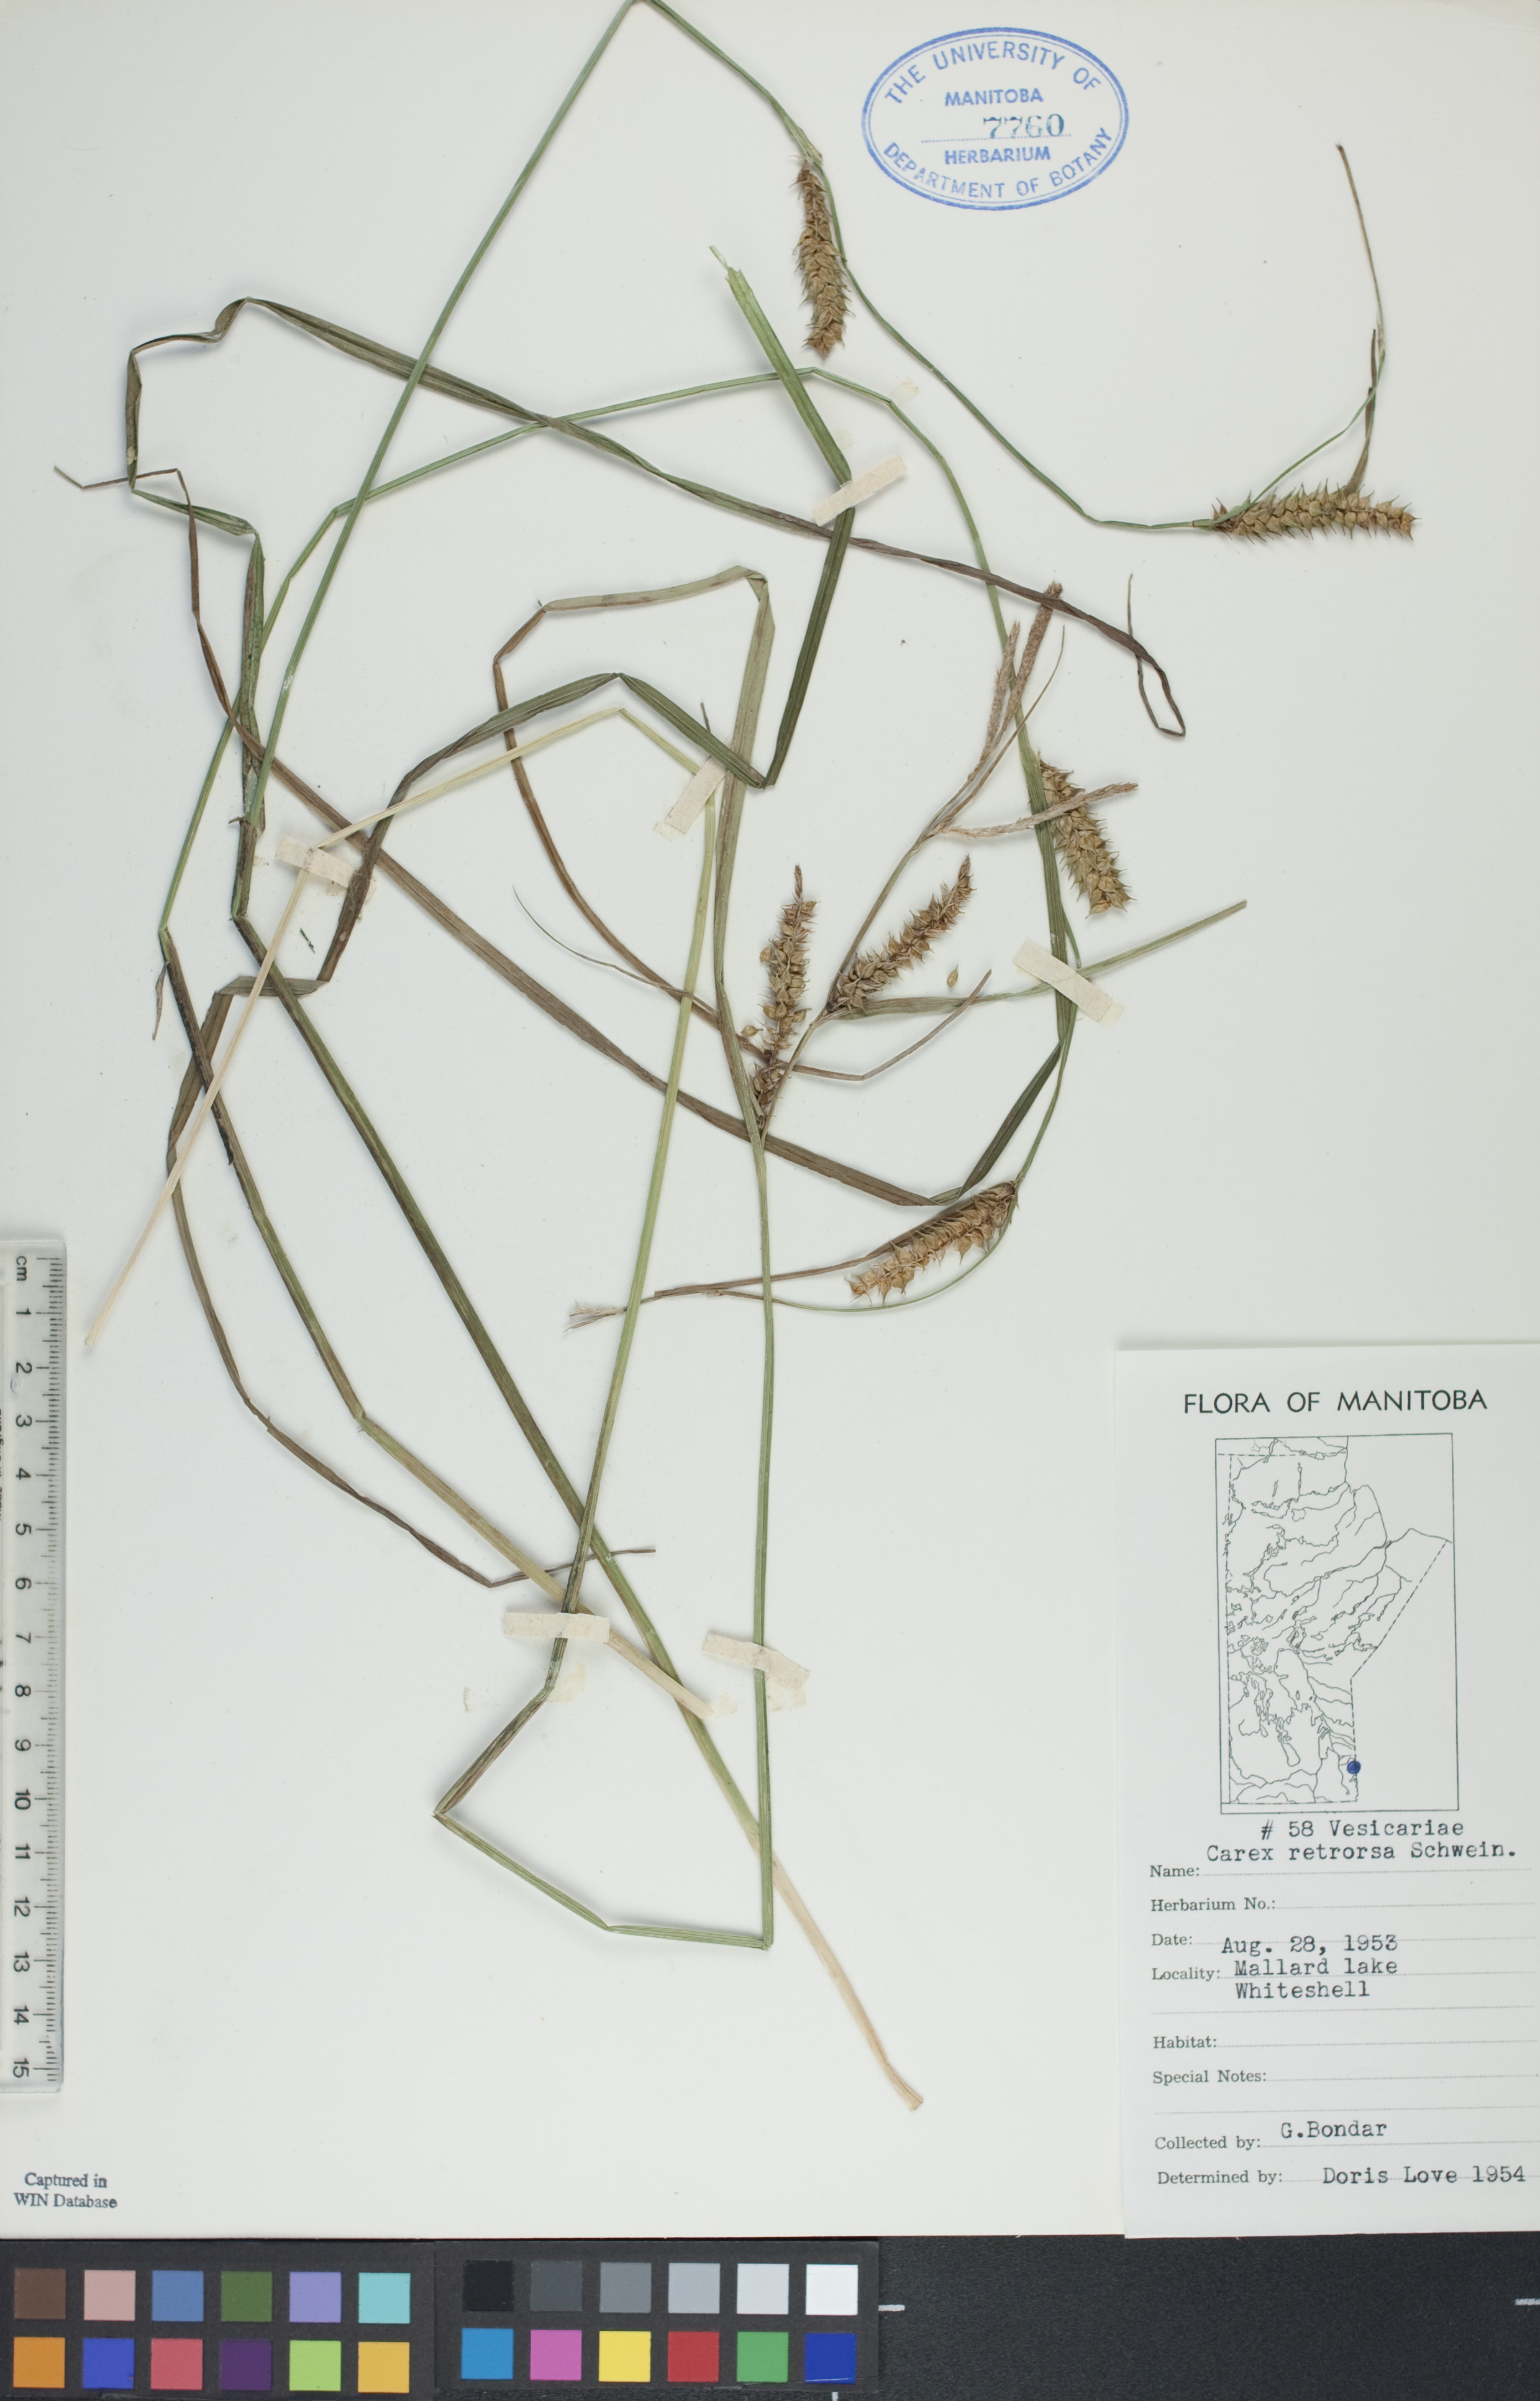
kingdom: Plantae
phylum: Tracheophyta
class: Liliopsida
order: Poales
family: Cyperaceae
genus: Carex
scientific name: Carex retrorsa
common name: Knot-sheath sedge
